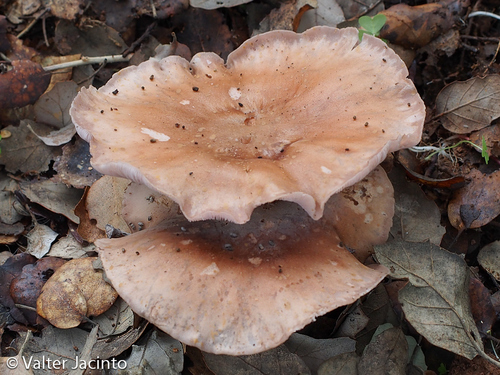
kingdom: Fungi
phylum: Basidiomycota
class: Agaricomycetes
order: Agaricales
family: Tricholomataceae
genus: Lepista
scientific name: Lepista sordida
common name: Sordid blewit
